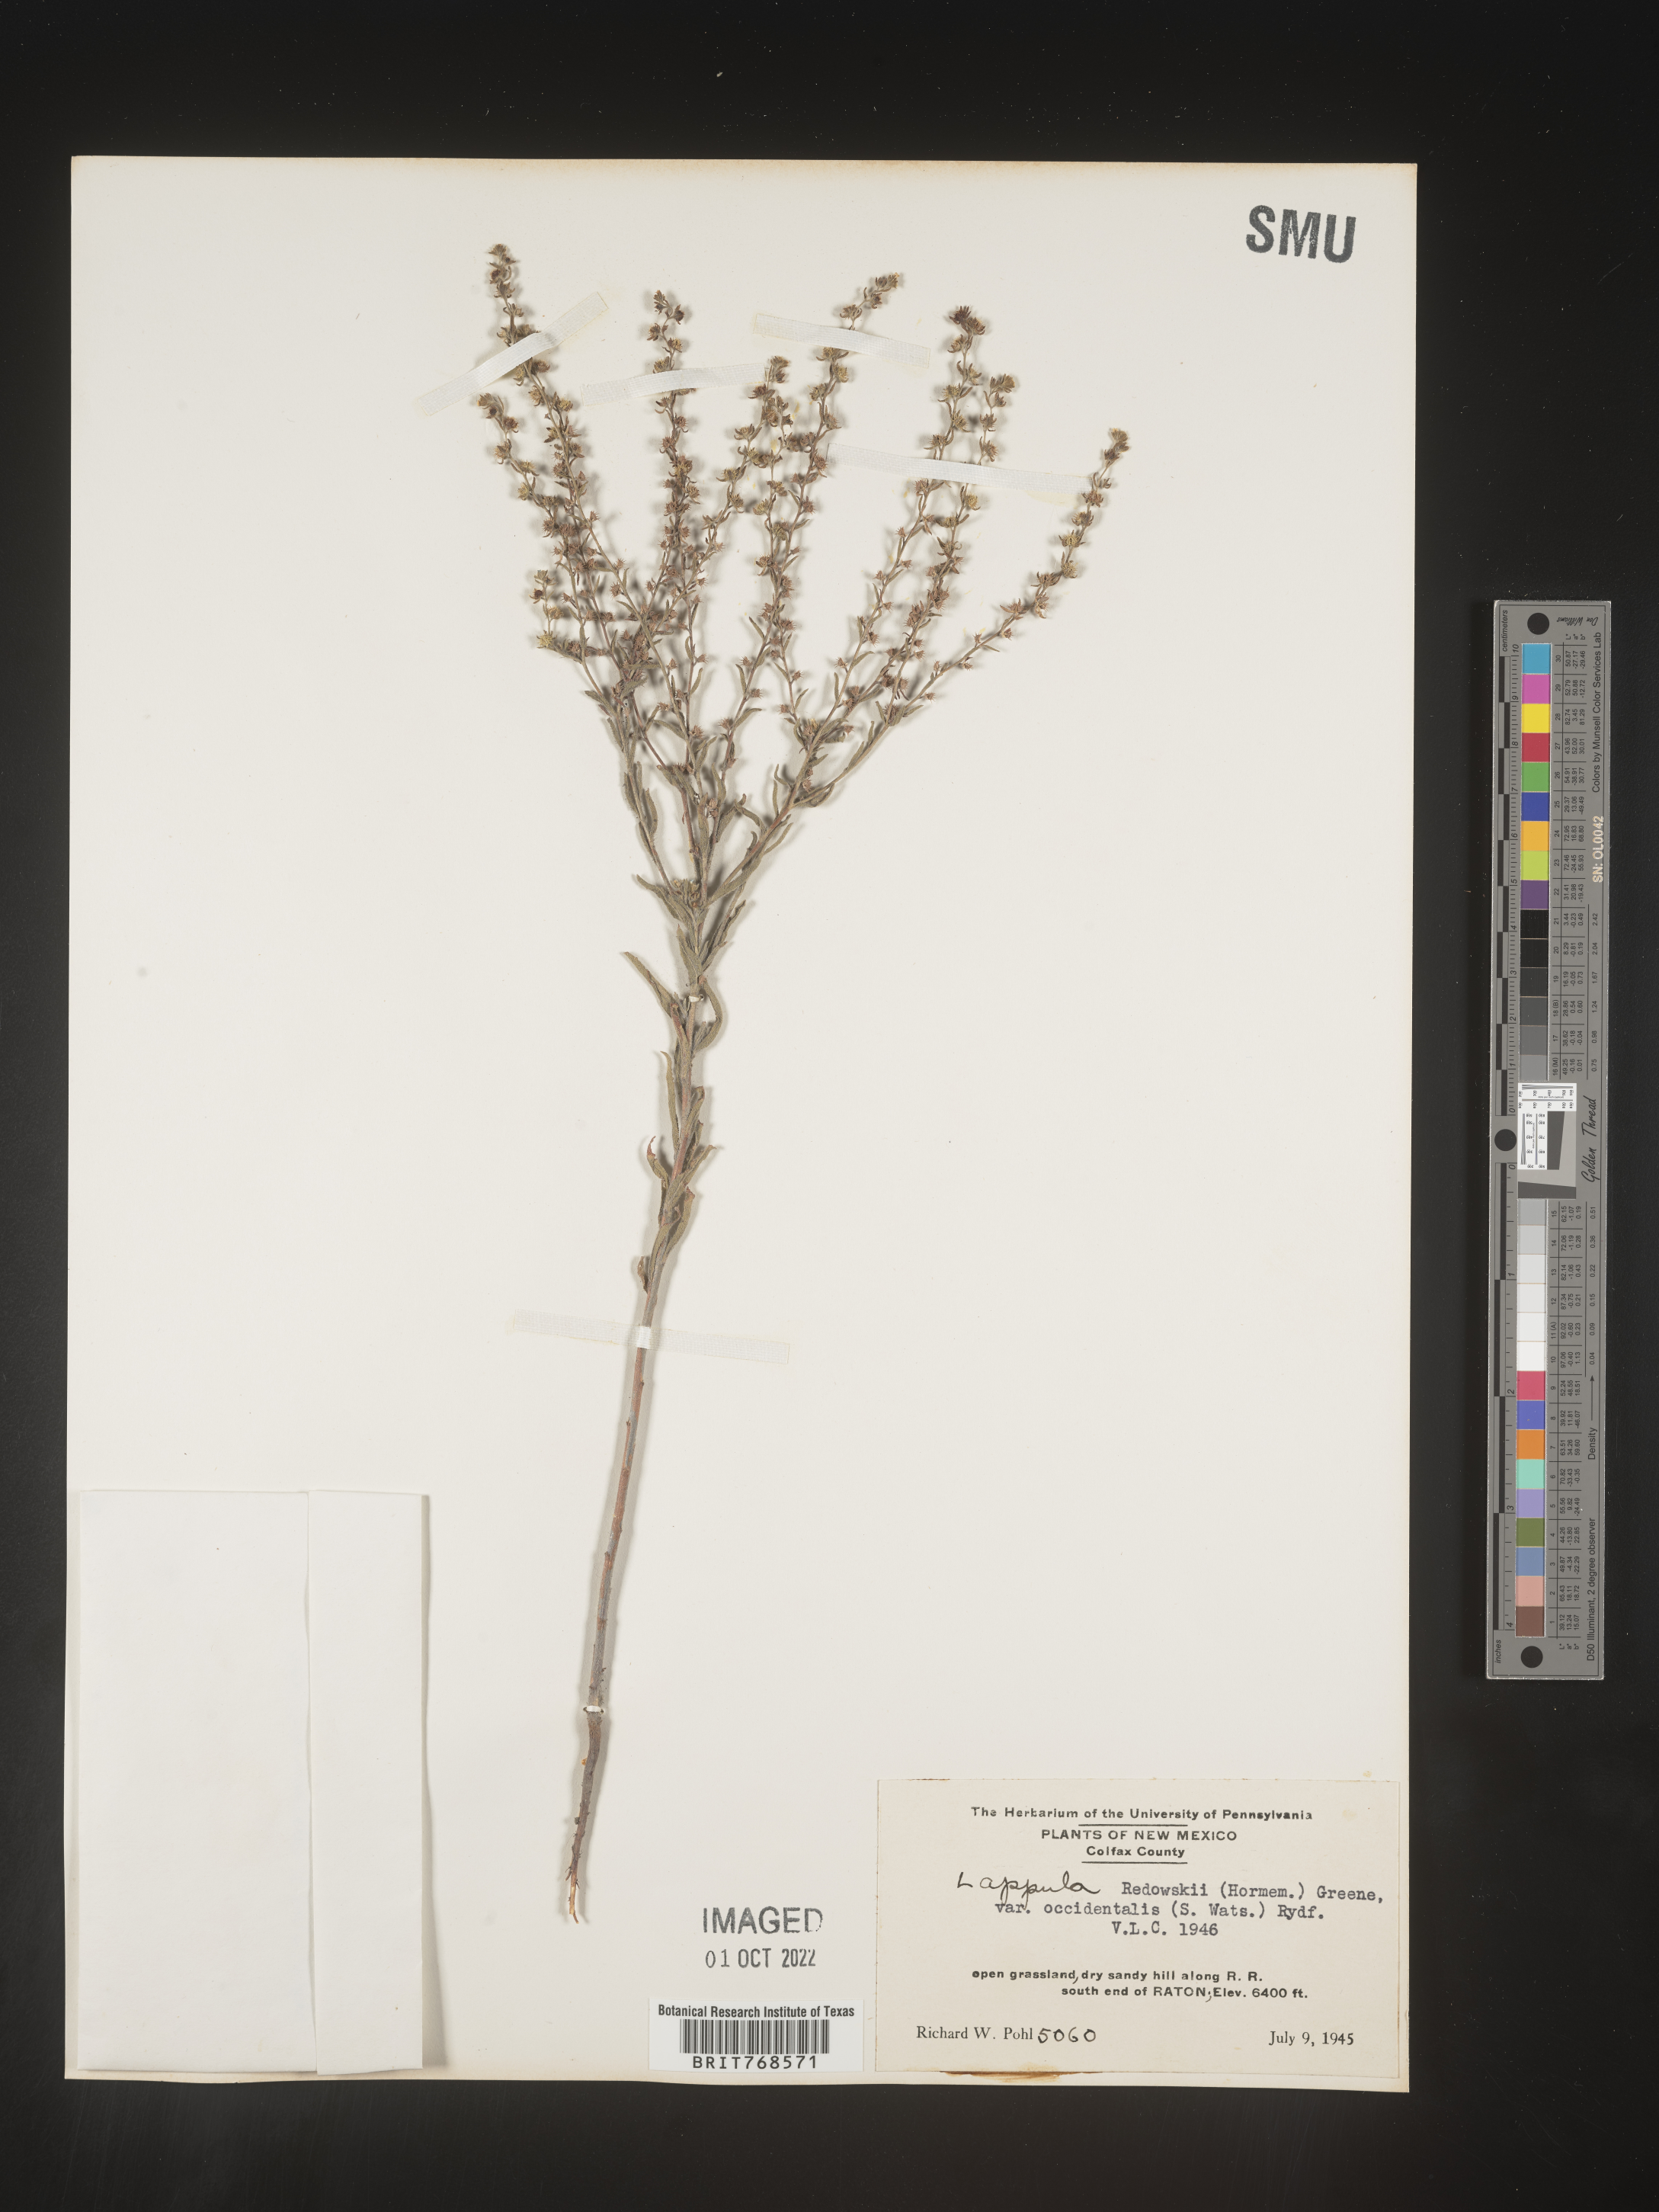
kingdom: Plantae
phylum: Tracheophyta
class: Magnoliopsida
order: Boraginales
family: Boraginaceae
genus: Lappula
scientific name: Lappula redowskii
